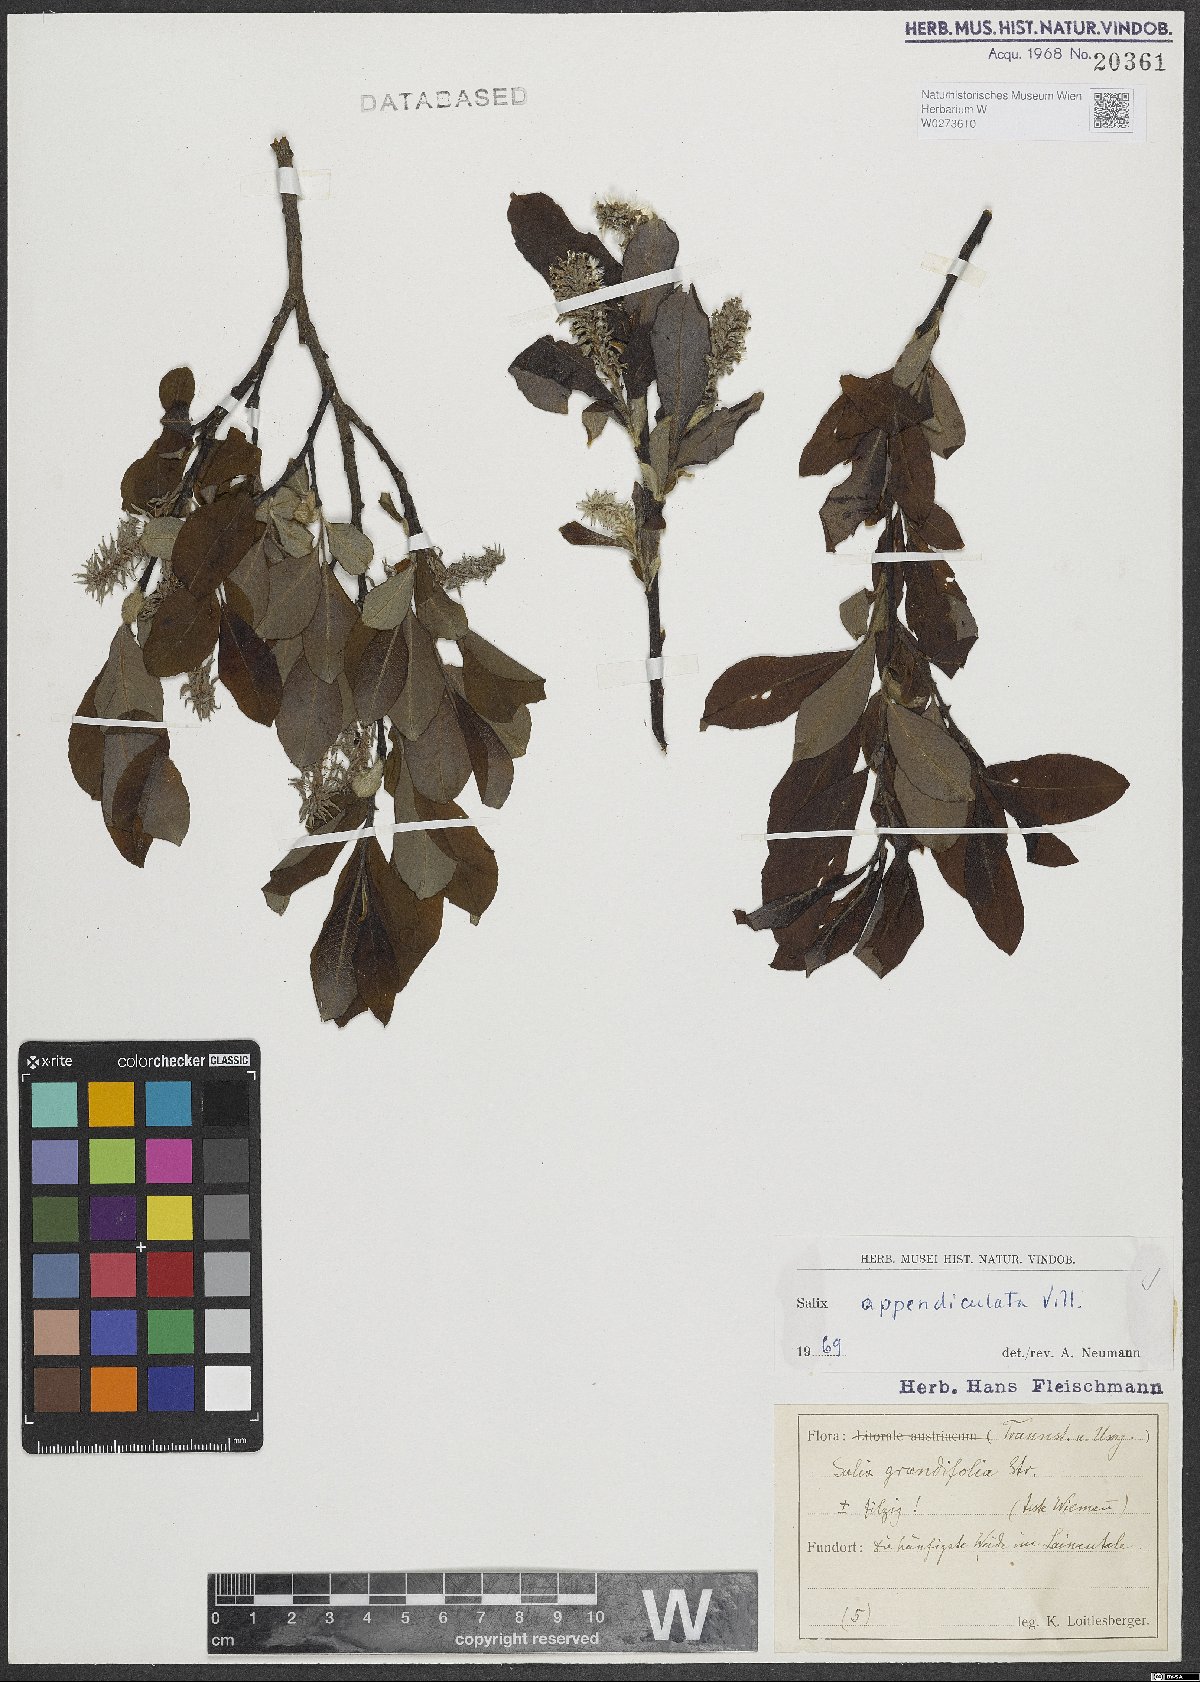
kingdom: Plantae
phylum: Tracheophyta
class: Magnoliopsida
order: Malpighiales
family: Salicaceae
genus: Salix
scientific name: Salix appendiculata
